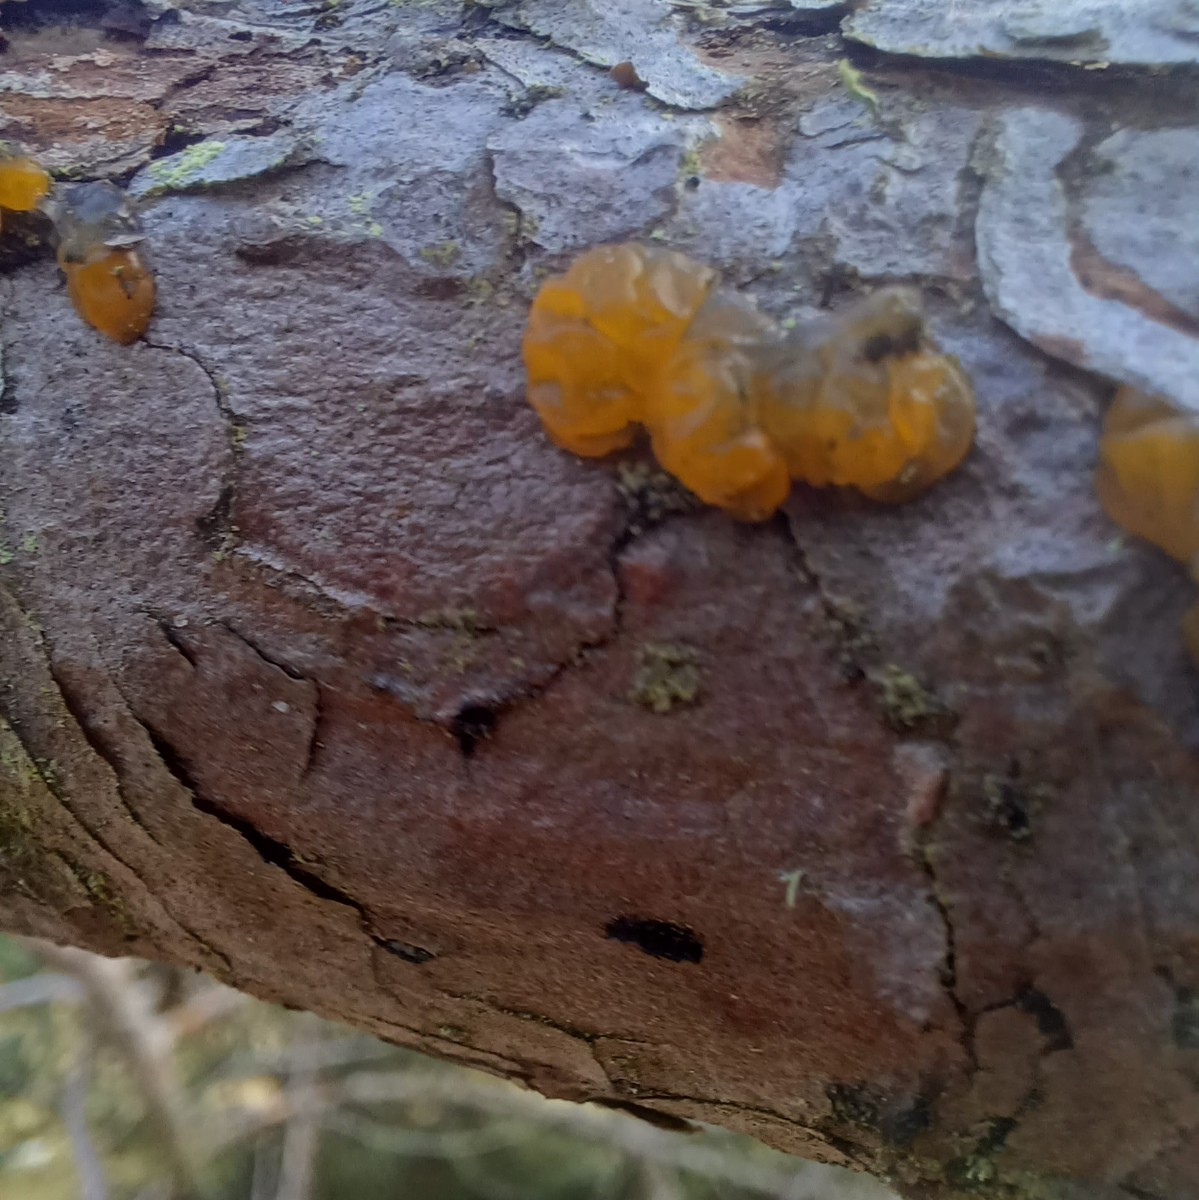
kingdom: Fungi
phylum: Basidiomycota
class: Dacrymycetes
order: Dacrymycetales
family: Dacrymycetaceae
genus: Dacrymyces
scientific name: Dacrymyces
